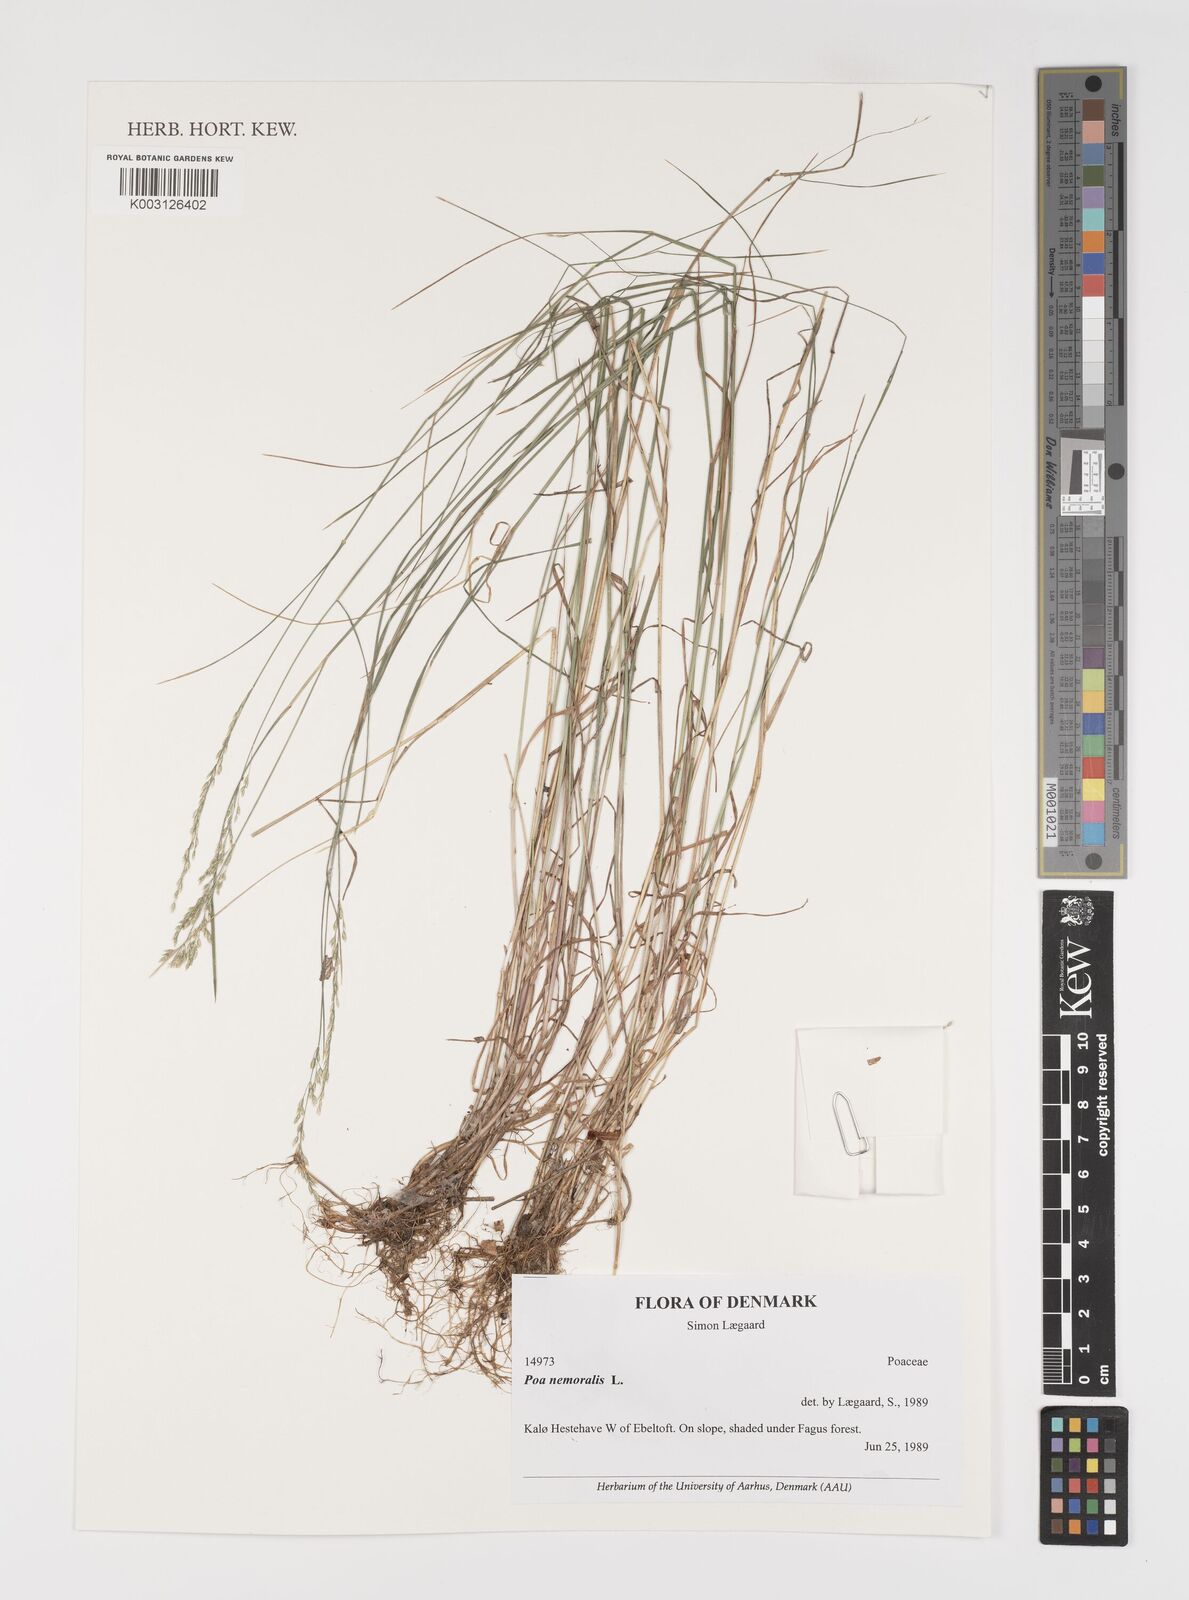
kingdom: Plantae
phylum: Tracheophyta
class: Liliopsida
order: Poales
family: Poaceae
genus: Poa
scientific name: Poa nemoralis
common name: Wood bluegrass
